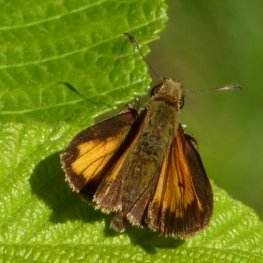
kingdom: Animalia
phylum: Arthropoda
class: Insecta
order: Lepidoptera
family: Hesperiidae
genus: Lon
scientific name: Lon hobomok
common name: Hobomok Skipper
